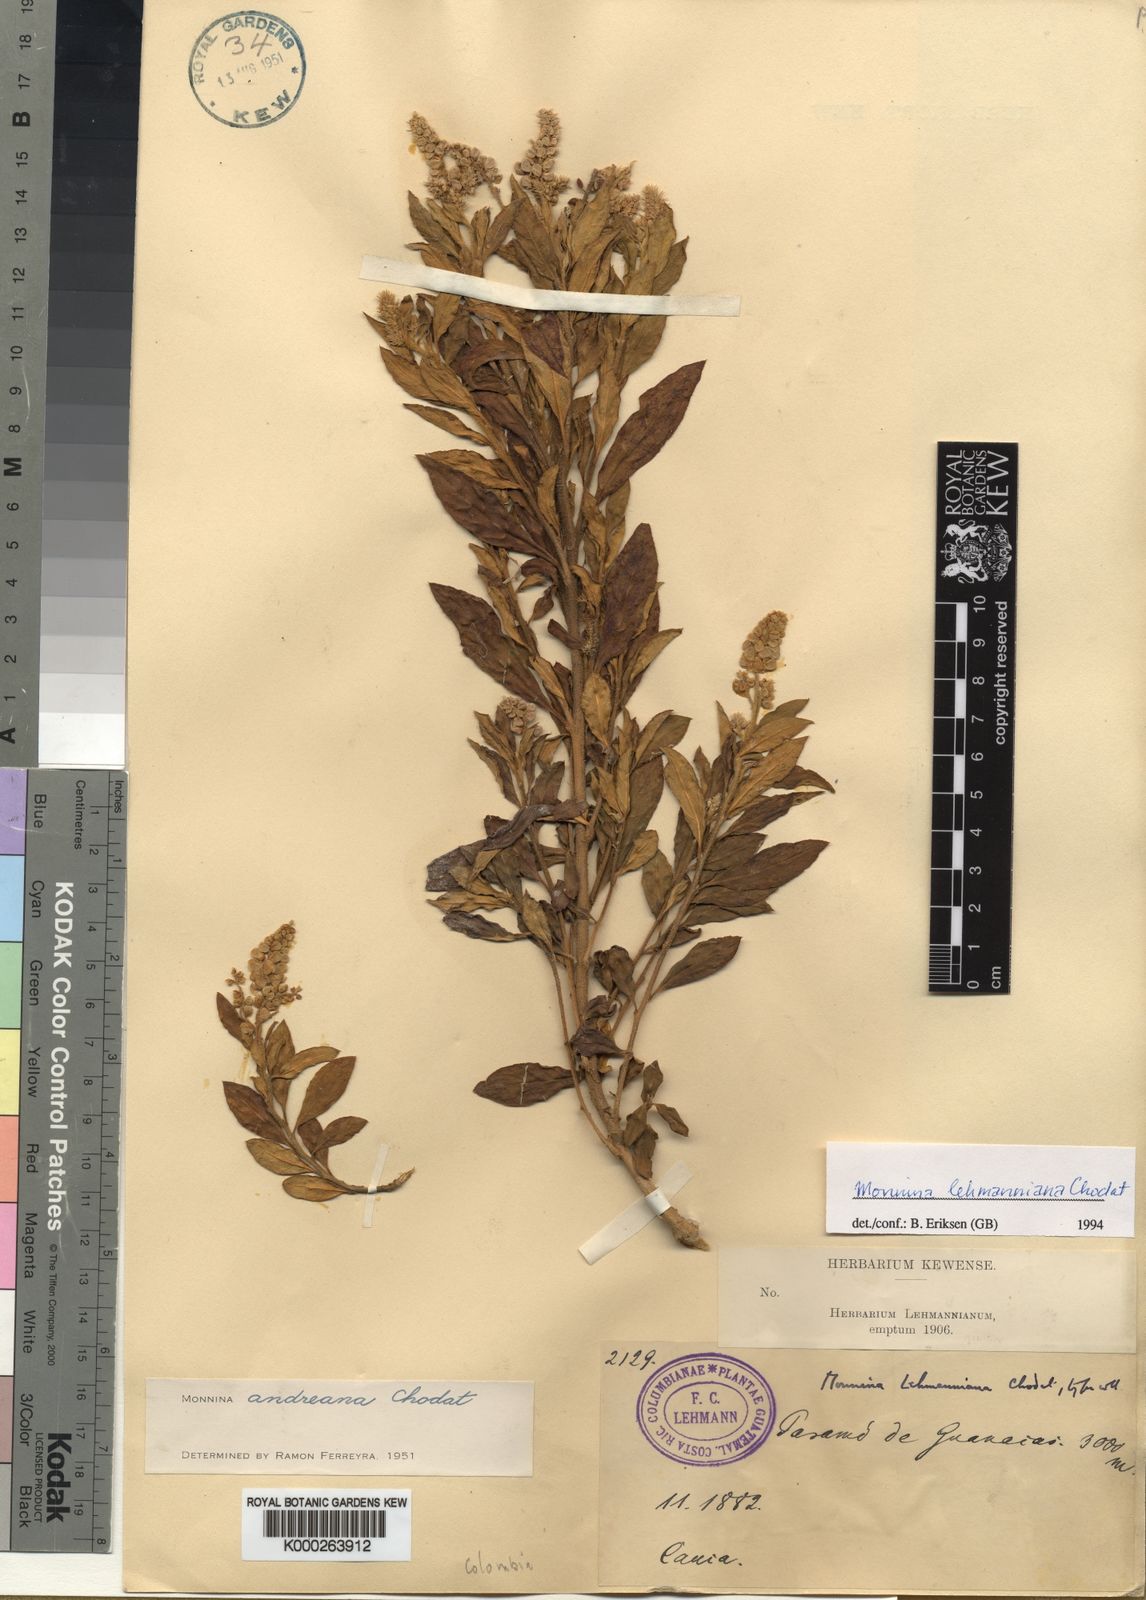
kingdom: Plantae
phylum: Tracheophyta
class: Magnoliopsida
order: Fabales
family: Polygalaceae
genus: Monnina
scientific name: Monnina lehmanniana
